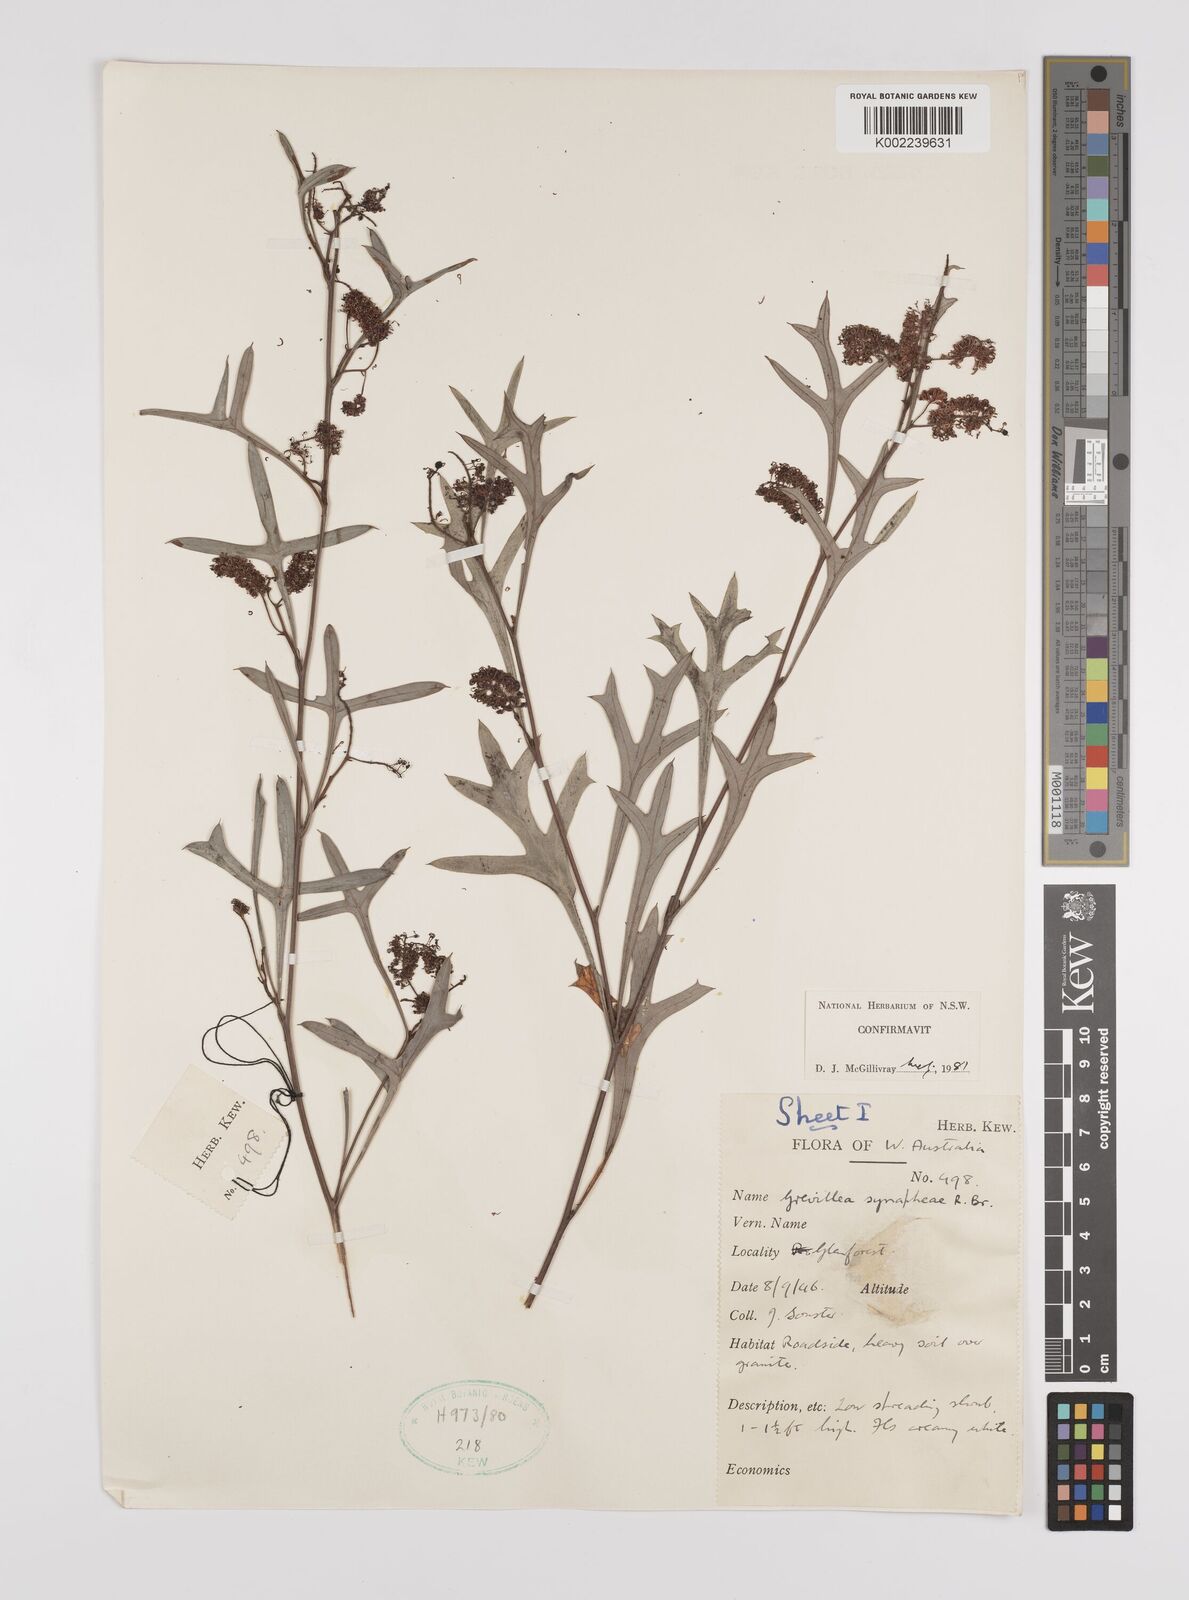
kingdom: Plantae
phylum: Tracheophyta
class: Magnoliopsida
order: Proteales
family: Proteaceae
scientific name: Proteaceae
